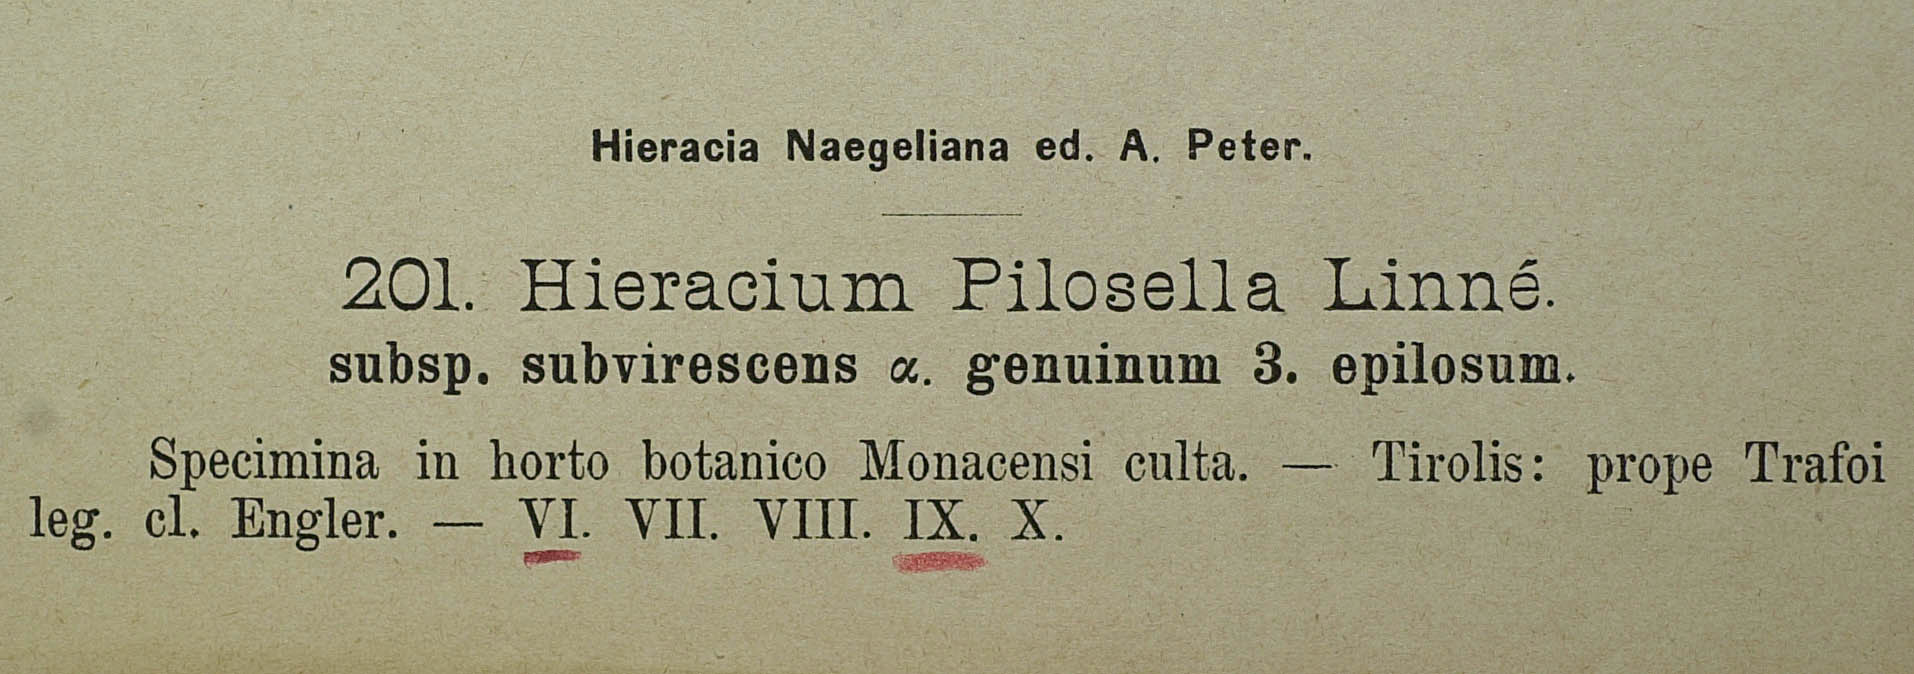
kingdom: Plantae
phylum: Tracheophyta
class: Magnoliopsida
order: Asterales
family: Asteraceae
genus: Pilosella
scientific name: Pilosella officinarum
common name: Mouse-ear hawkweed
